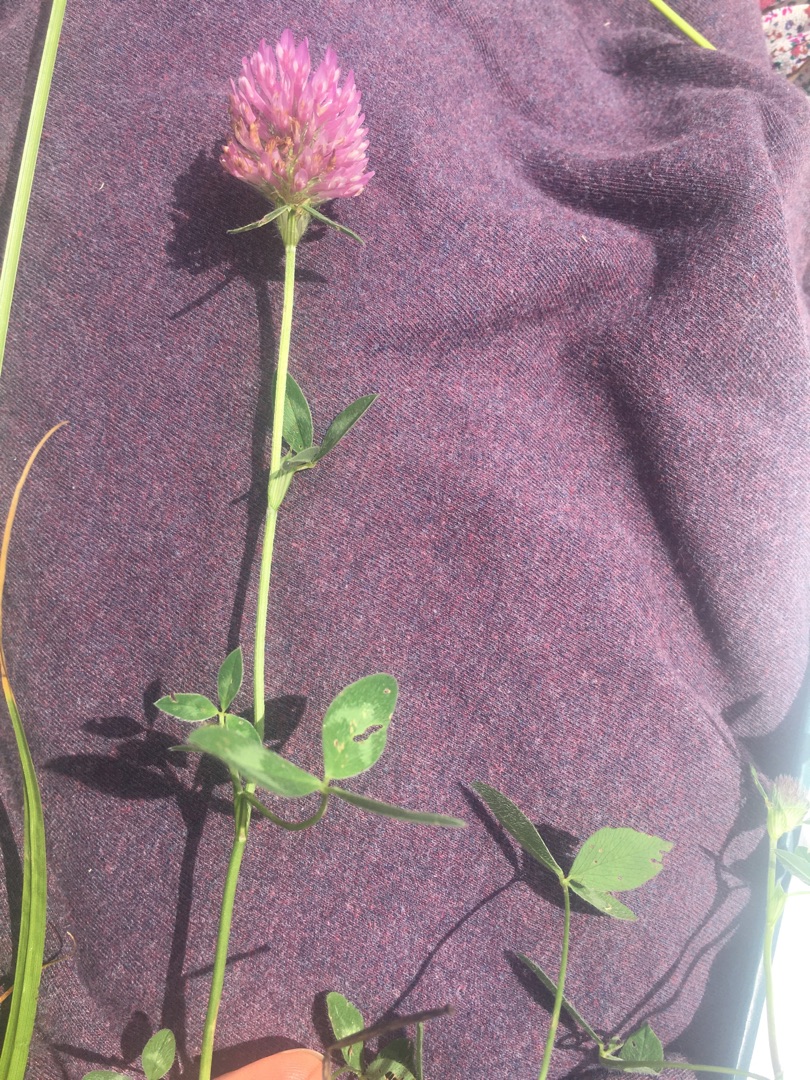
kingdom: Plantae
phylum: Tracheophyta
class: Magnoliopsida
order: Fabales
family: Fabaceae
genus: Trifolium
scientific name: Trifolium pratense
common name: Rød-kløver
